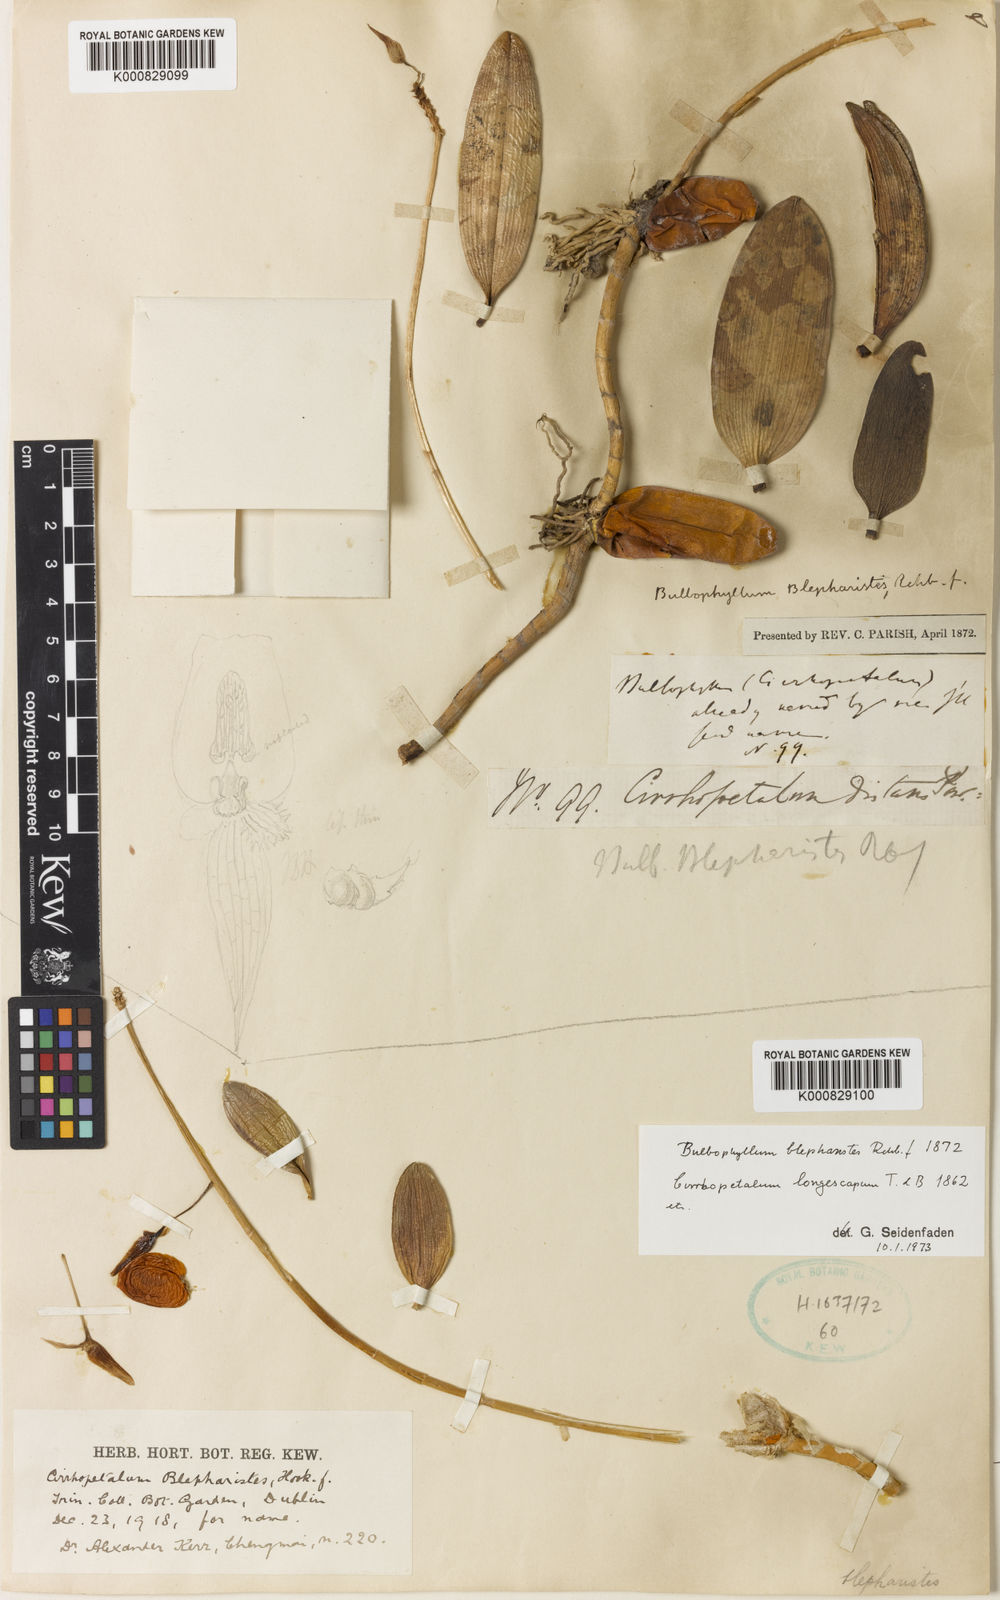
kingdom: Plantae
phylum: Tracheophyta
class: Liliopsida
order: Asparagales
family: Orchidaceae
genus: Bulbophyllum
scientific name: Bulbophyllum blepharistes
